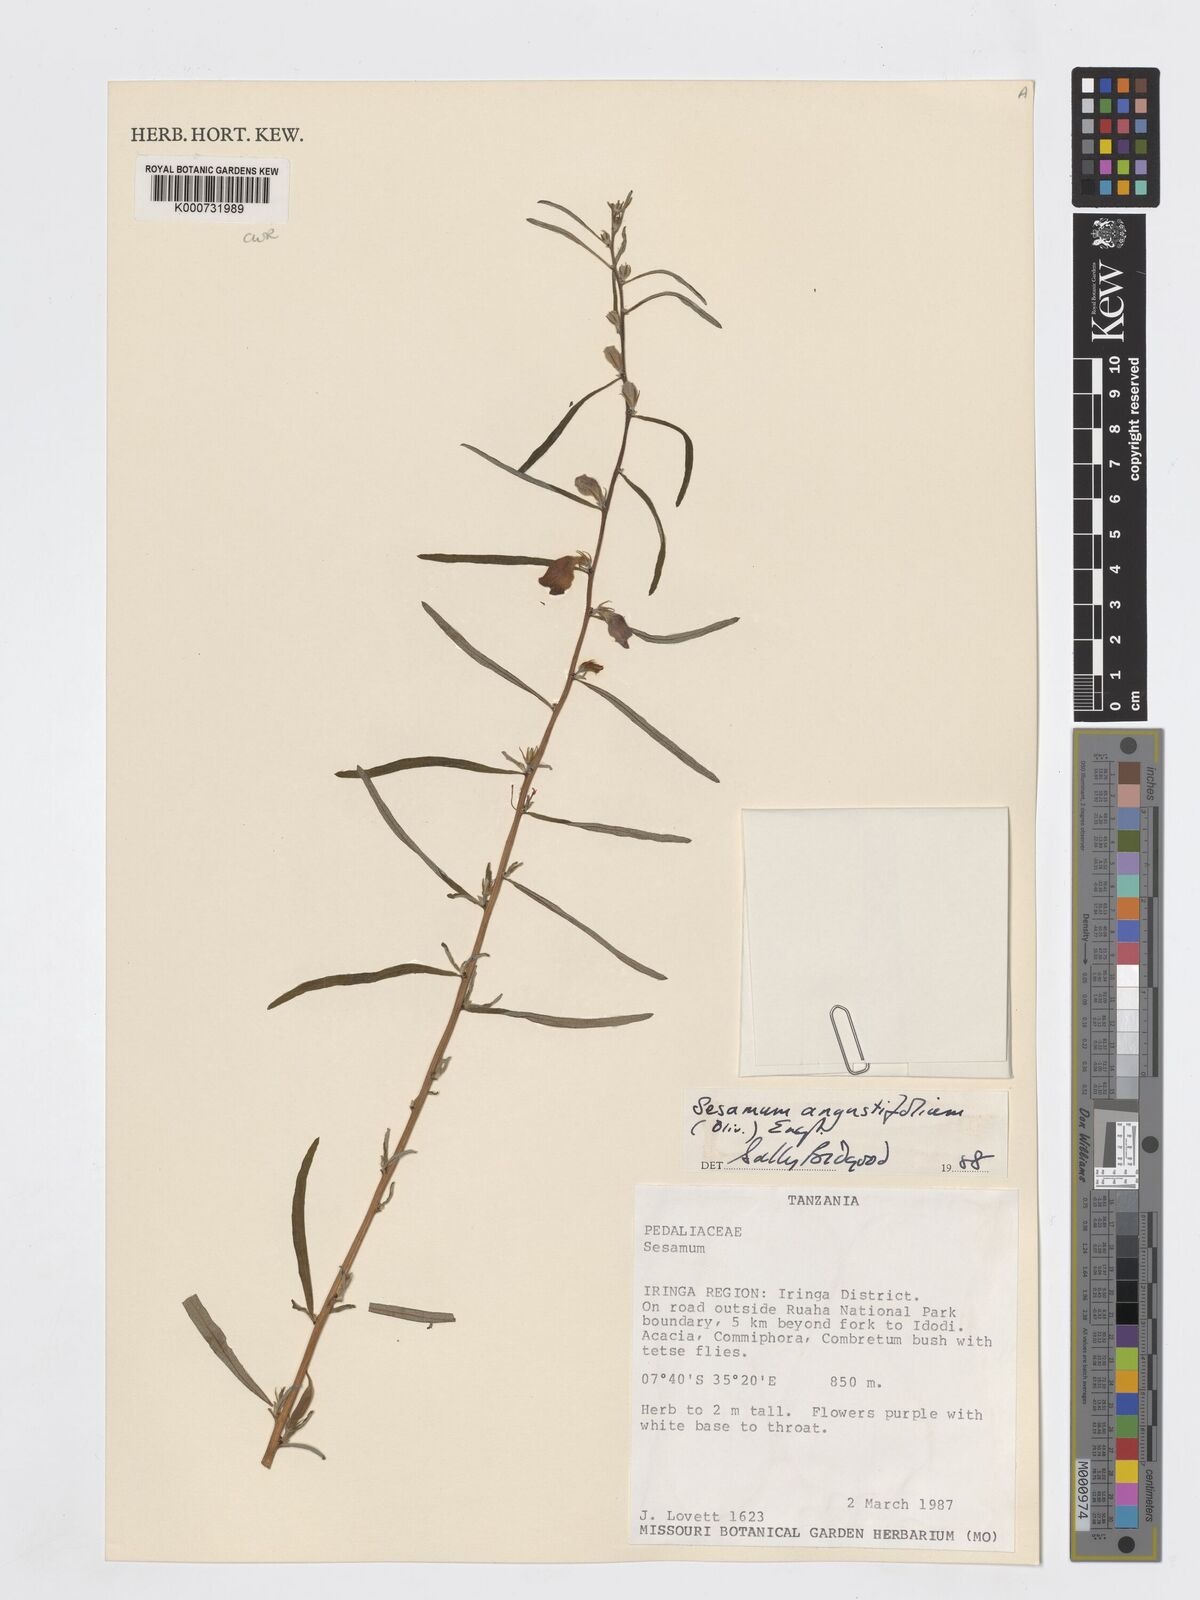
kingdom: Plantae
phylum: Tracheophyta
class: Magnoliopsida
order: Lamiales
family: Pedaliaceae
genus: Sesamum
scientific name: Sesamum angustifolium
